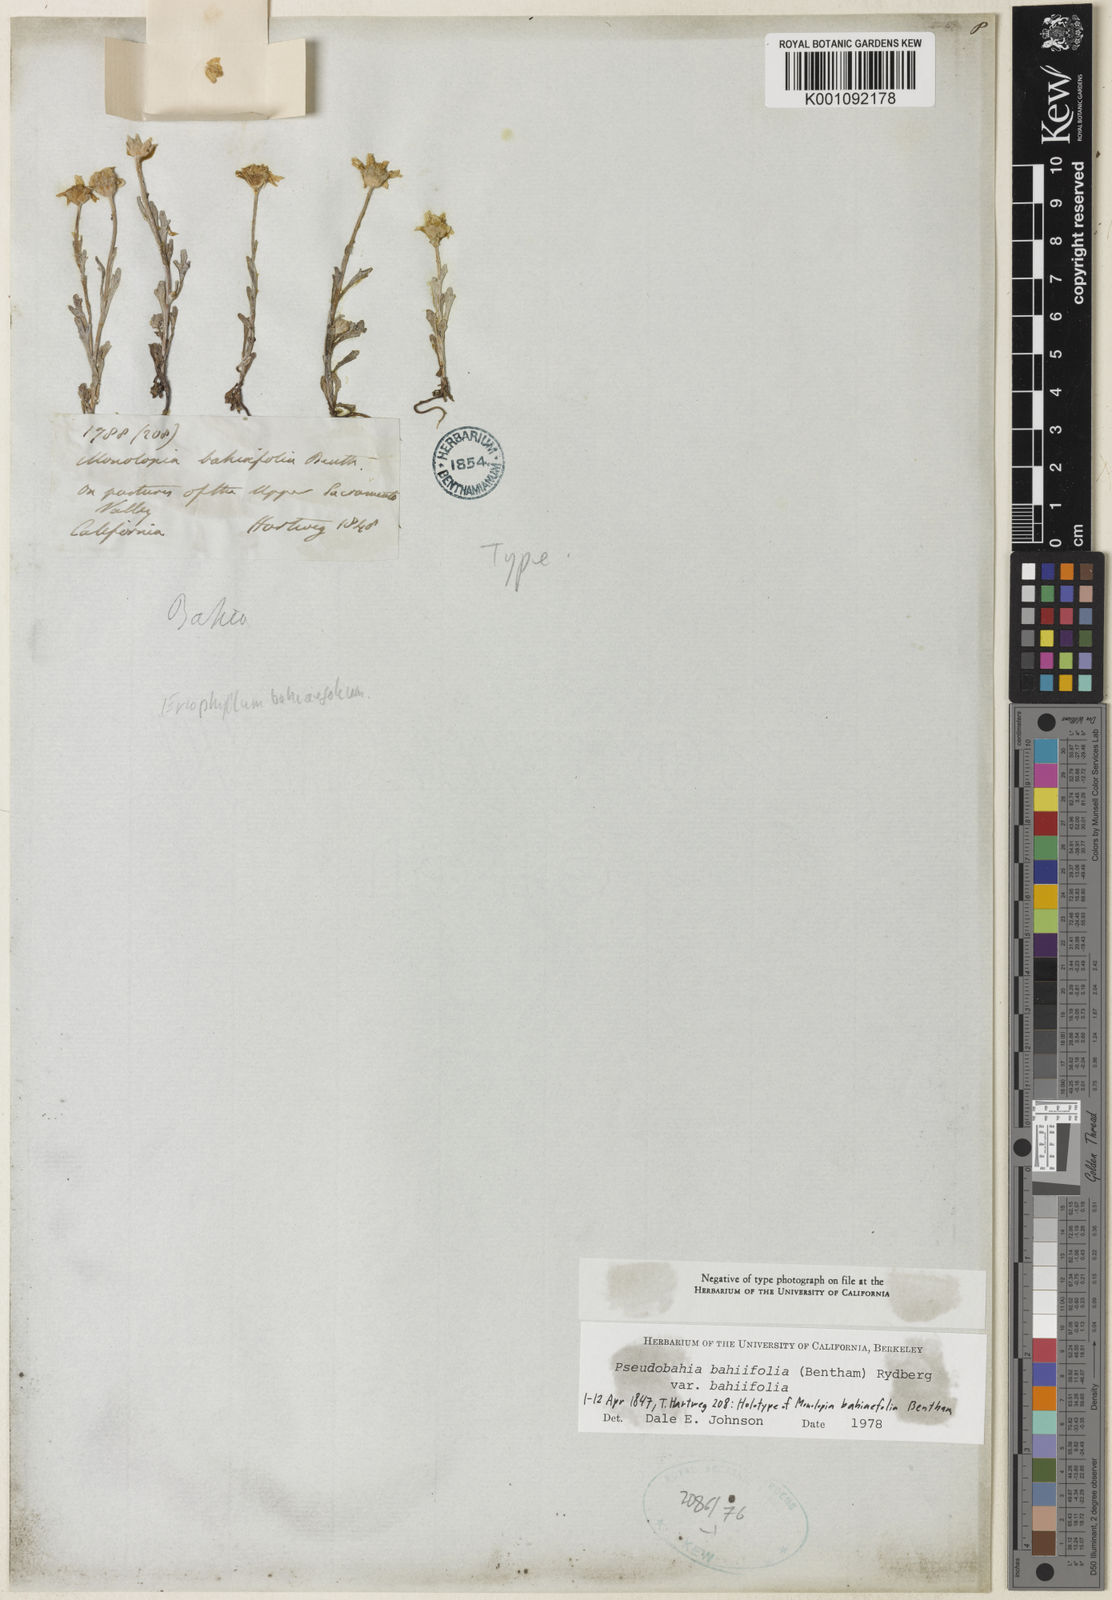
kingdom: Plantae
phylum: Tracheophyta
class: Magnoliopsida
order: Asterales
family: Asteraceae
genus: Pseudobahia
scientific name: Pseudobahia bahiifolia
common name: Hartweg's golden sunburst
